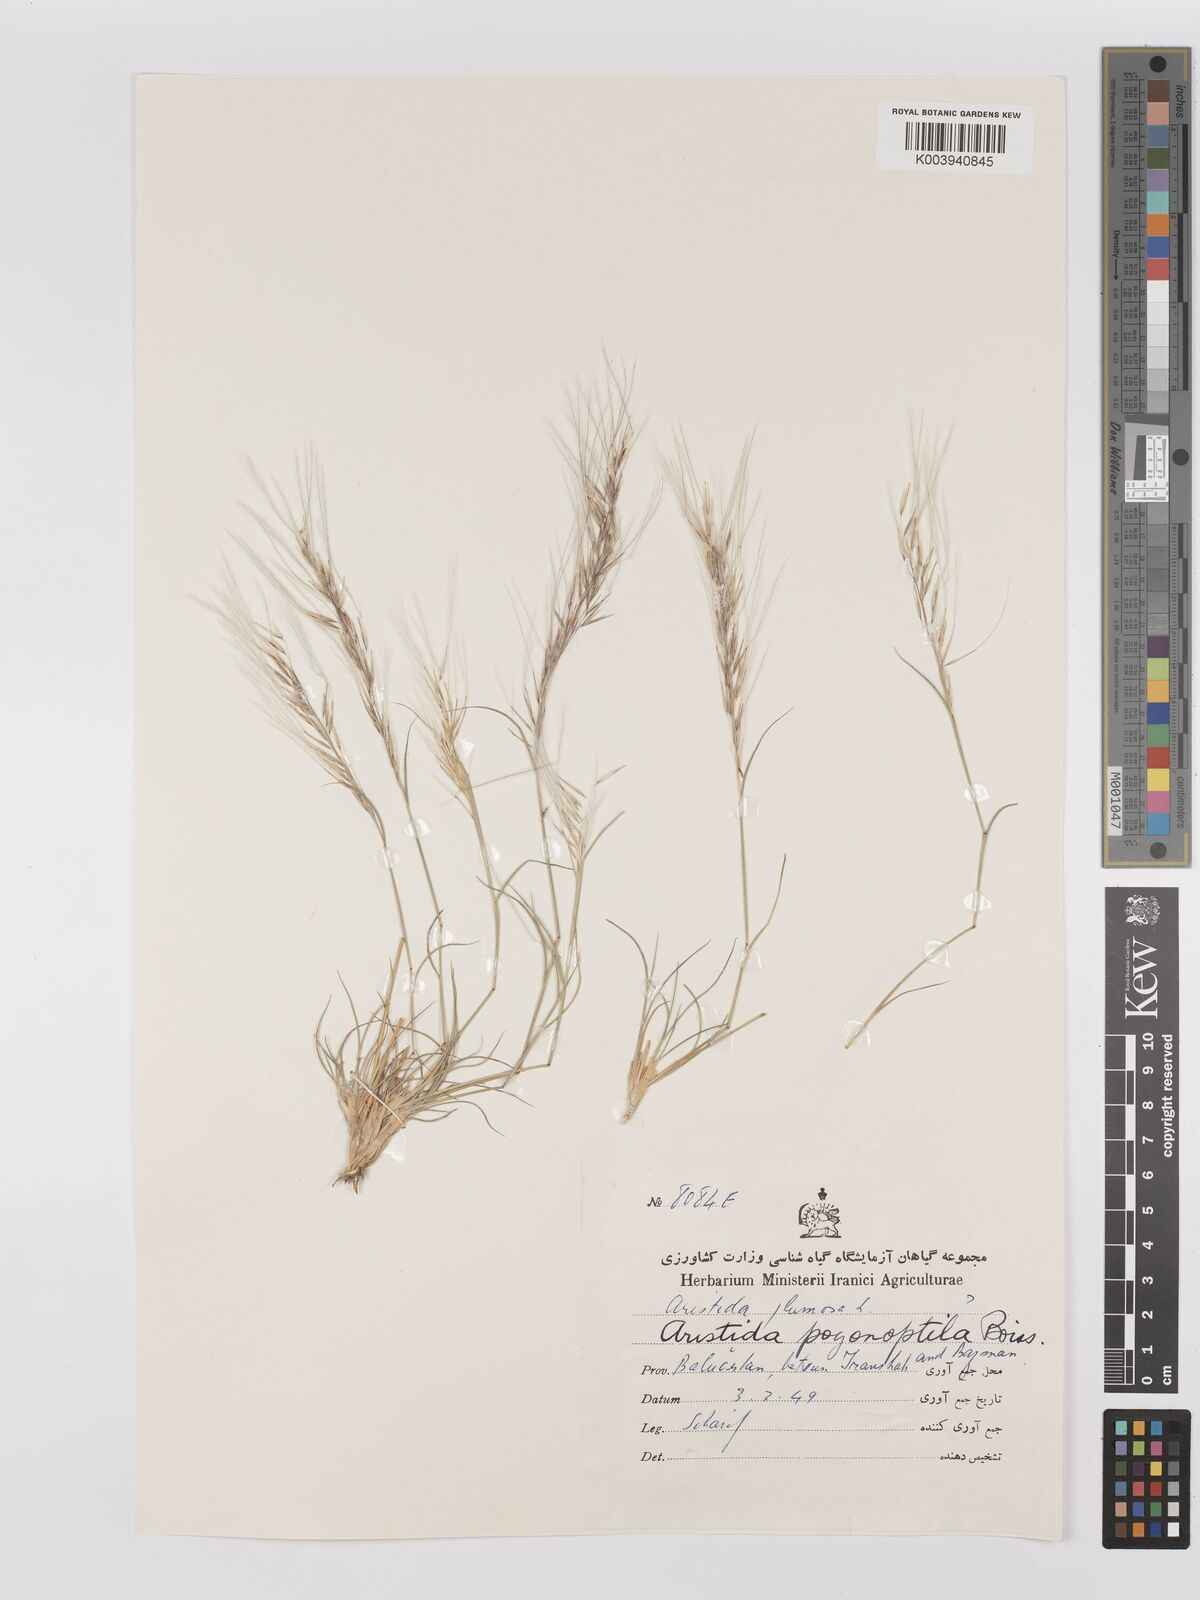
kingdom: Plantae
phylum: Tracheophyta
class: Liliopsida
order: Poales
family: Poaceae
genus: Stipagrostis
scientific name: Stipagrostis uniplumis
